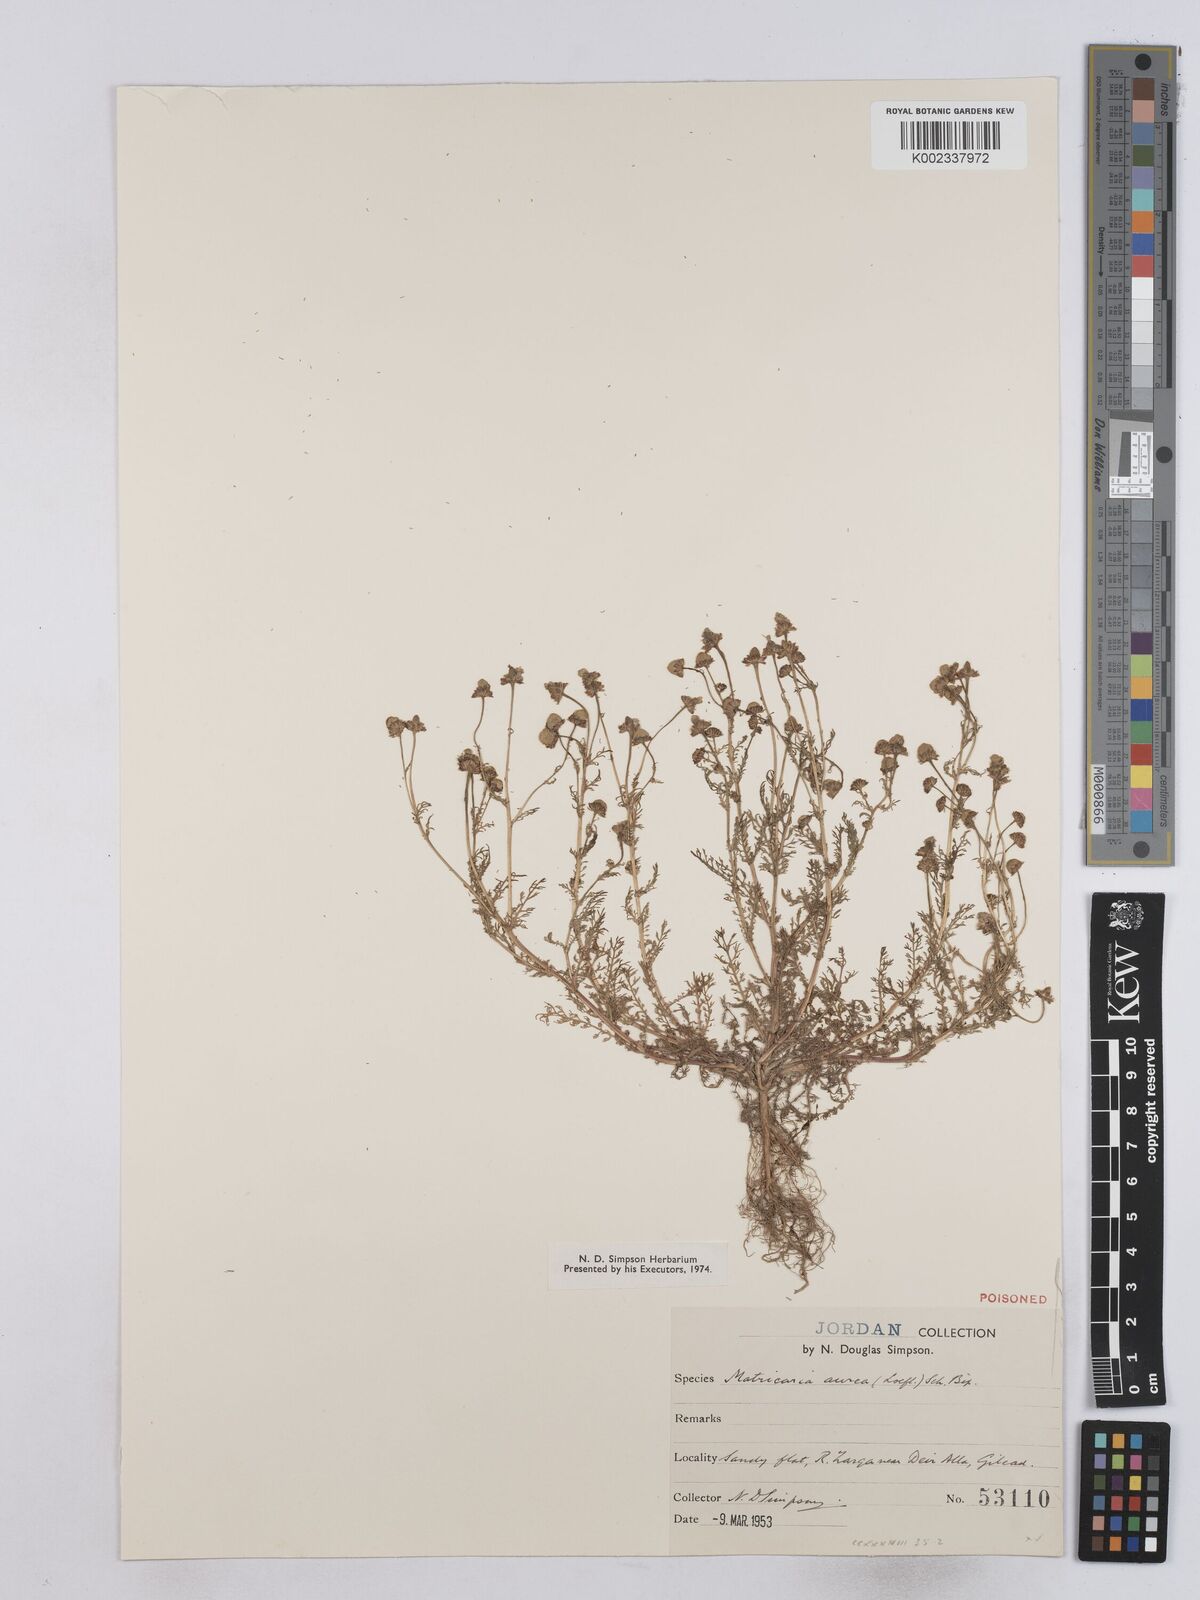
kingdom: Plantae
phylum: Tracheophyta
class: Magnoliopsida
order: Asterales
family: Asteraceae
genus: Matricaria
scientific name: Matricaria aurea
